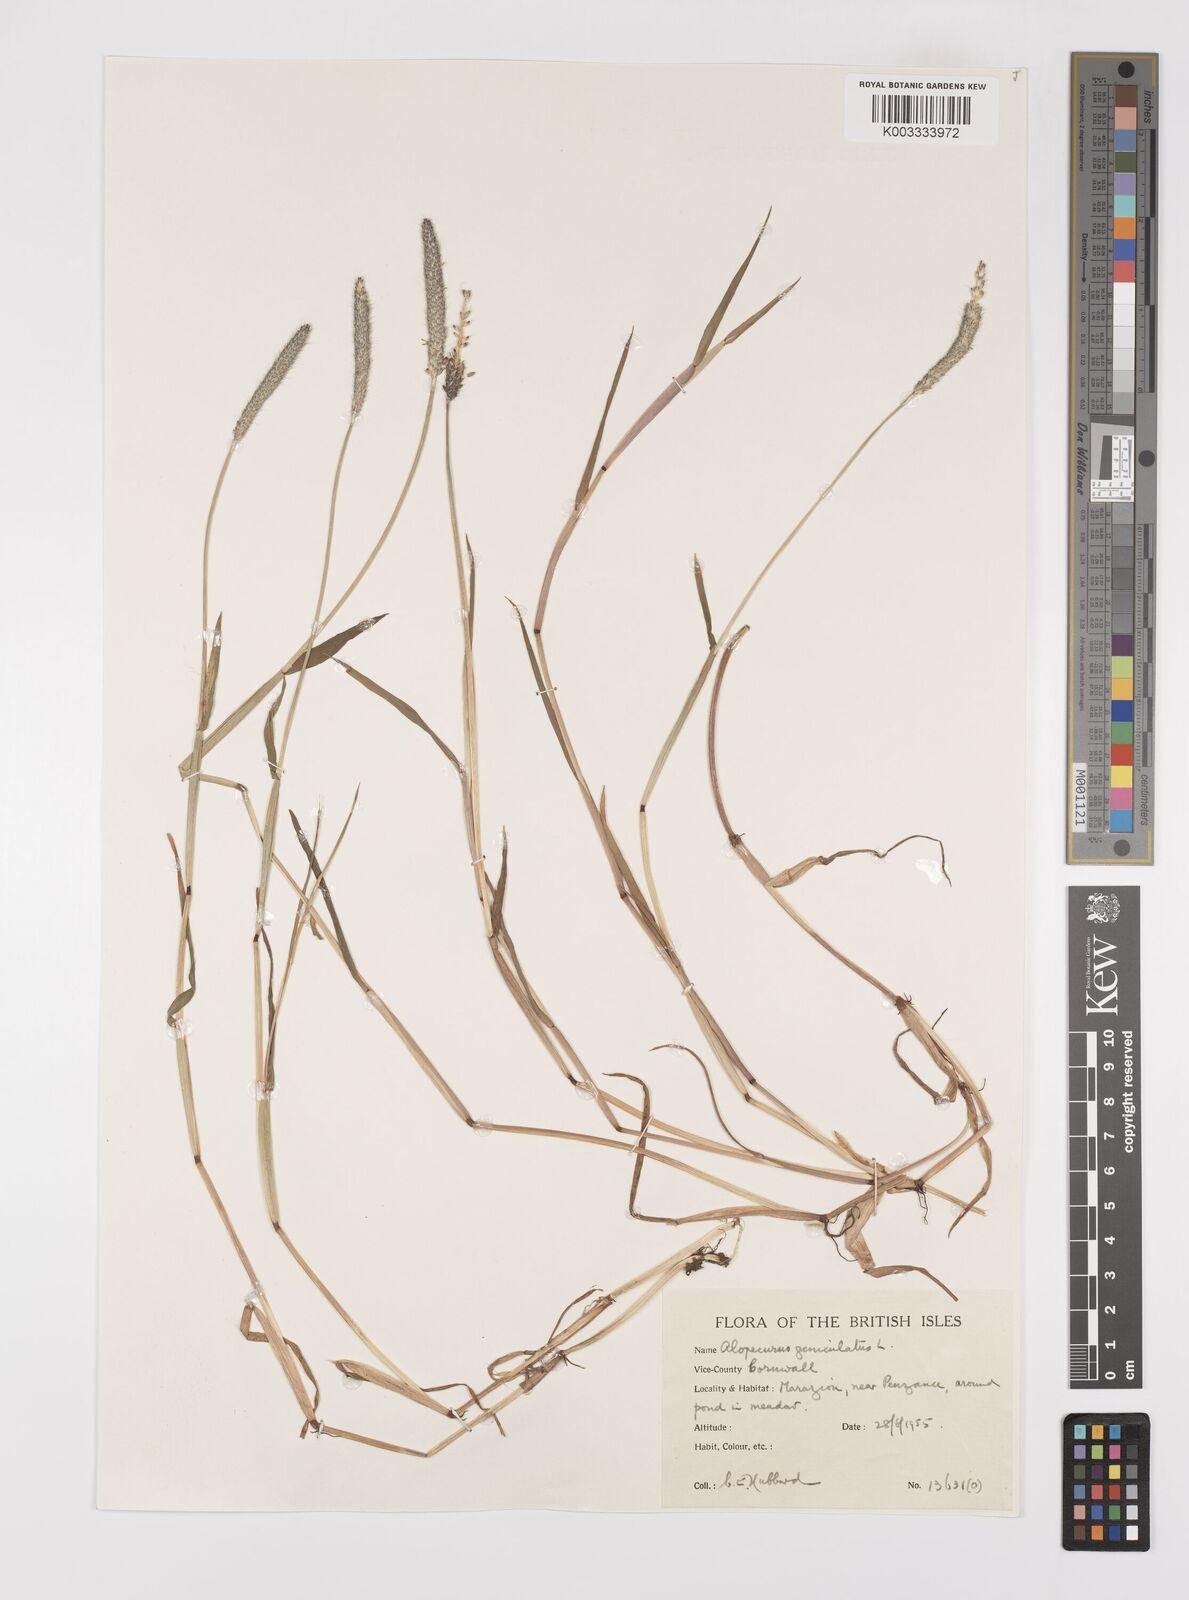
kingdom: Plantae
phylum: Tracheophyta
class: Liliopsida
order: Poales
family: Poaceae
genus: Alopecurus
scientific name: Alopecurus geniculatus
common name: Water foxtail
